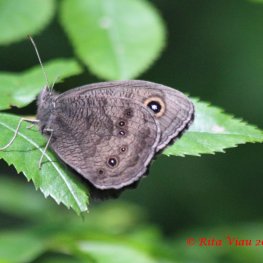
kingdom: Animalia
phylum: Arthropoda
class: Insecta
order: Lepidoptera
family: Nymphalidae
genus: Cercyonis
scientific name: Cercyonis pegala
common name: Common Wood-Nymph
